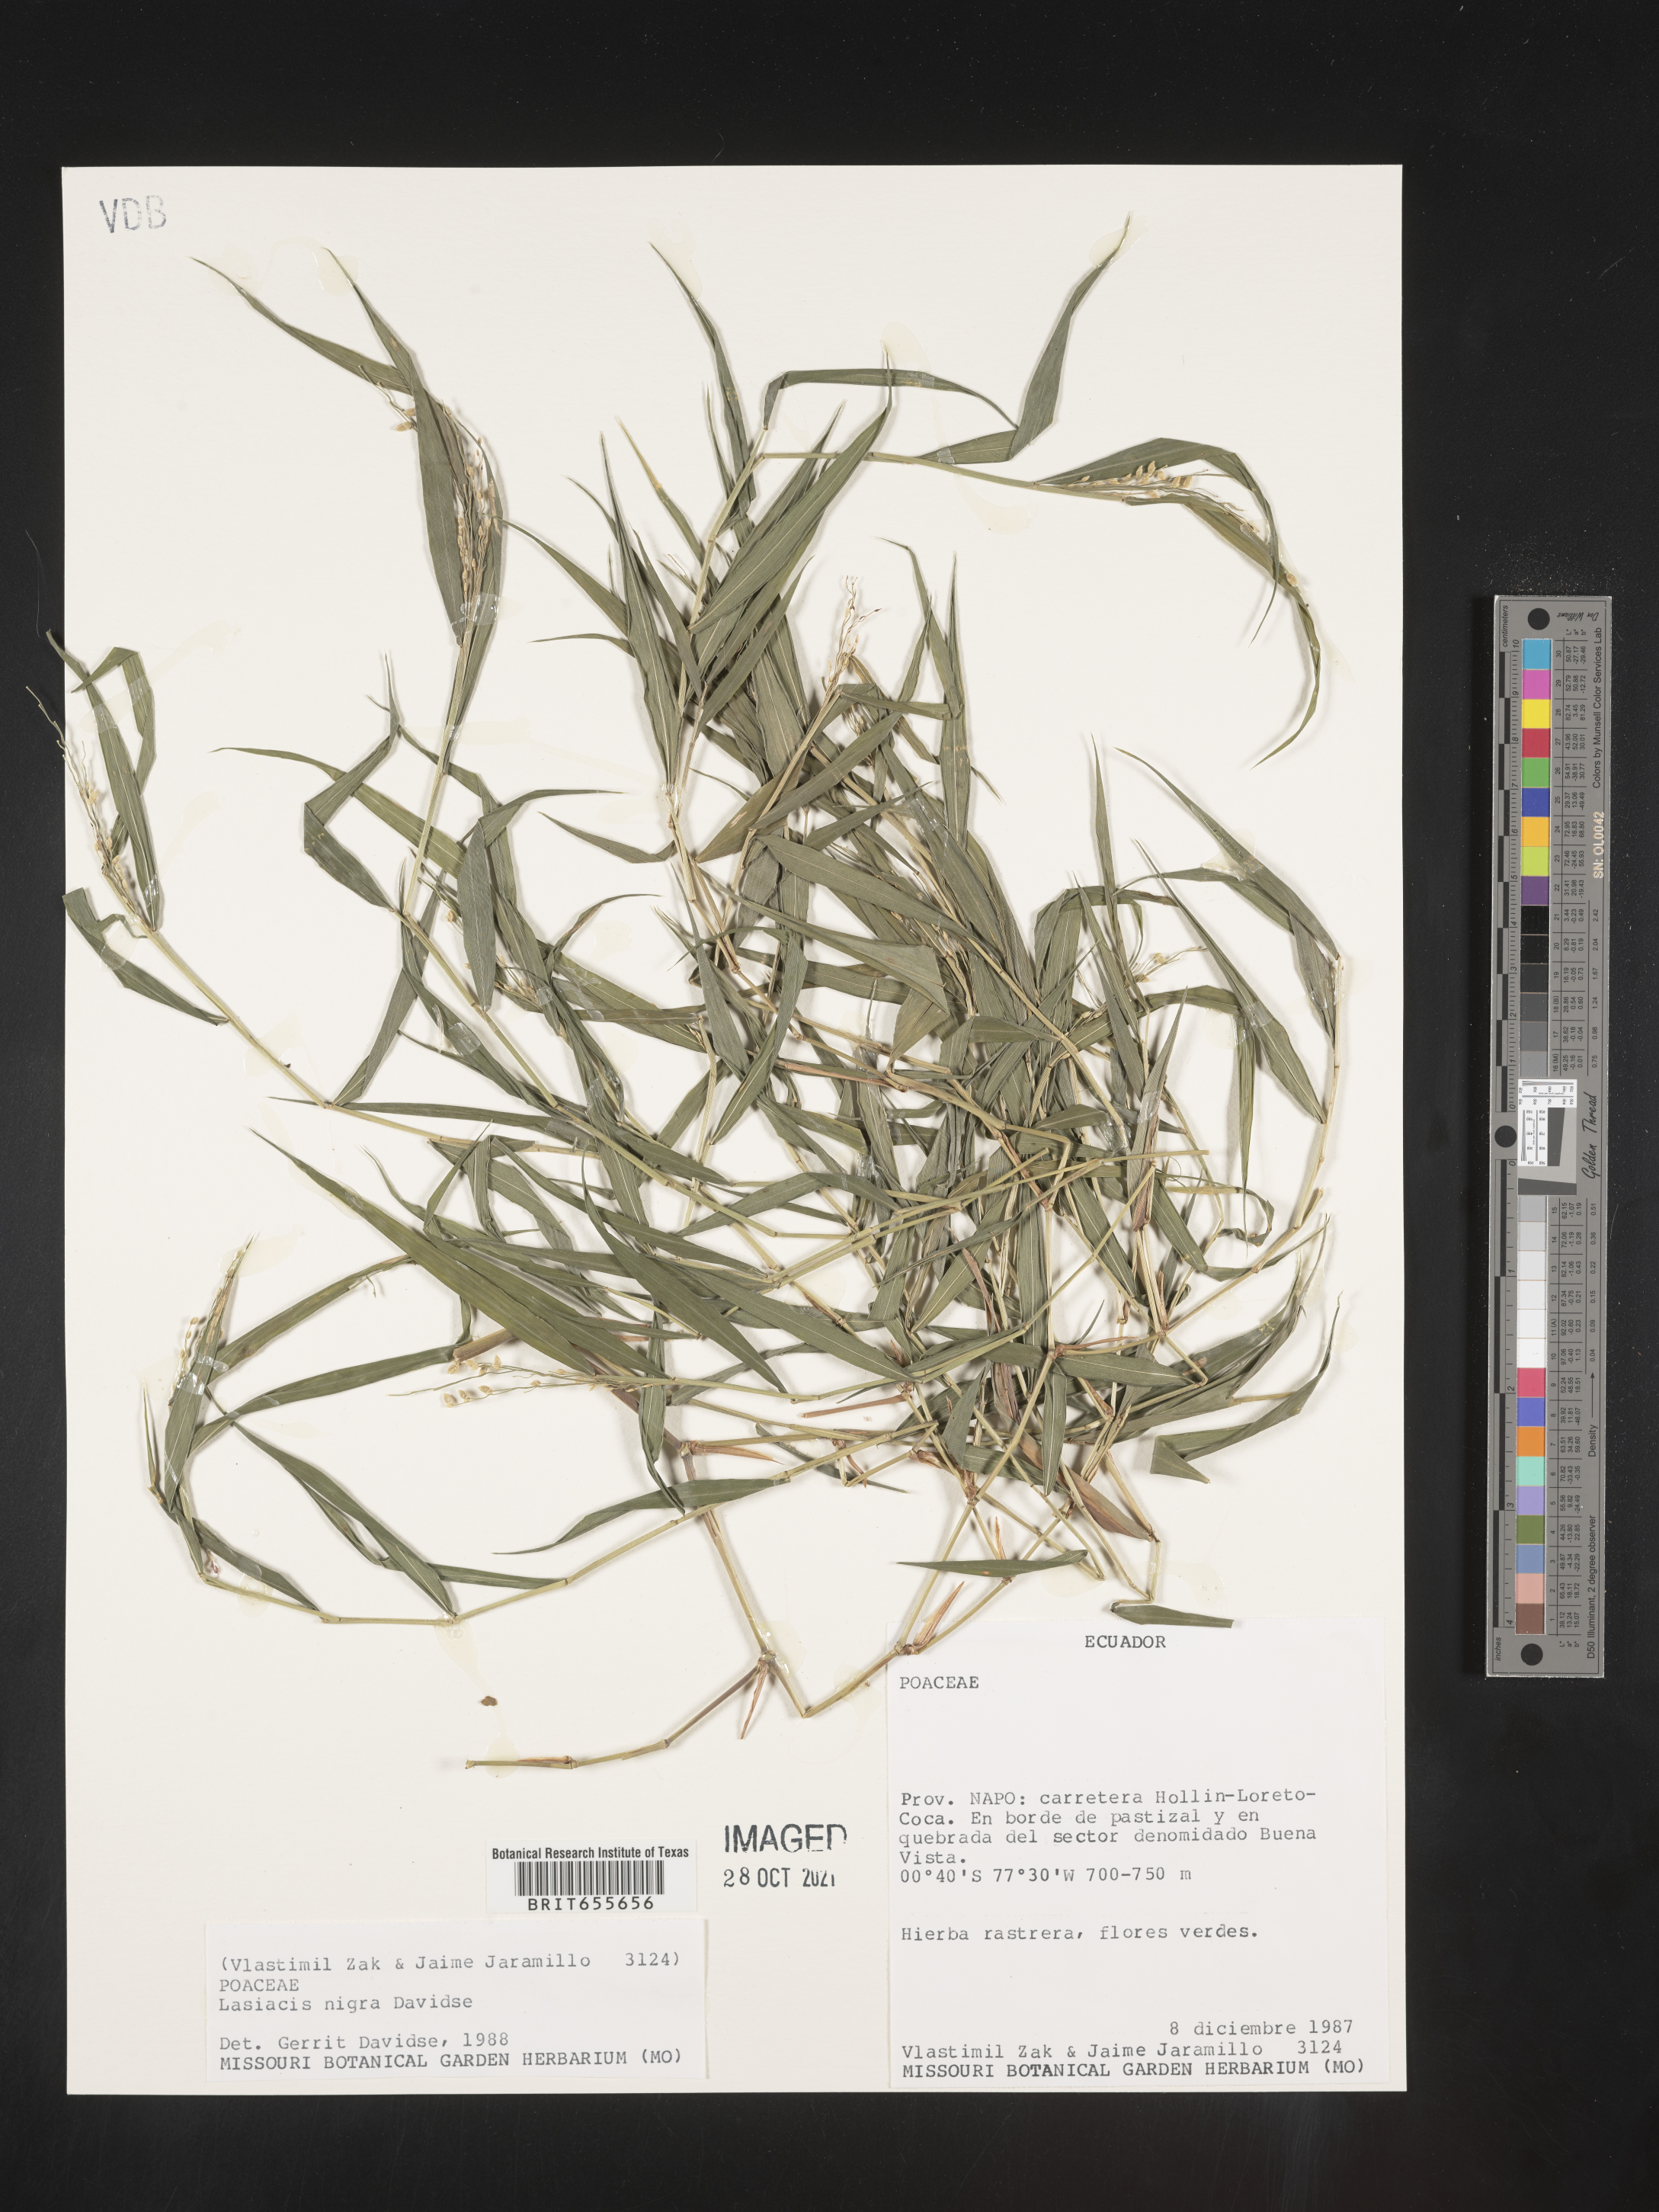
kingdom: Plantae
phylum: Tracheophyta
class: Liliopsida
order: Poales
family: Poaceae
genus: Lasiacis
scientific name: Lasiacis
